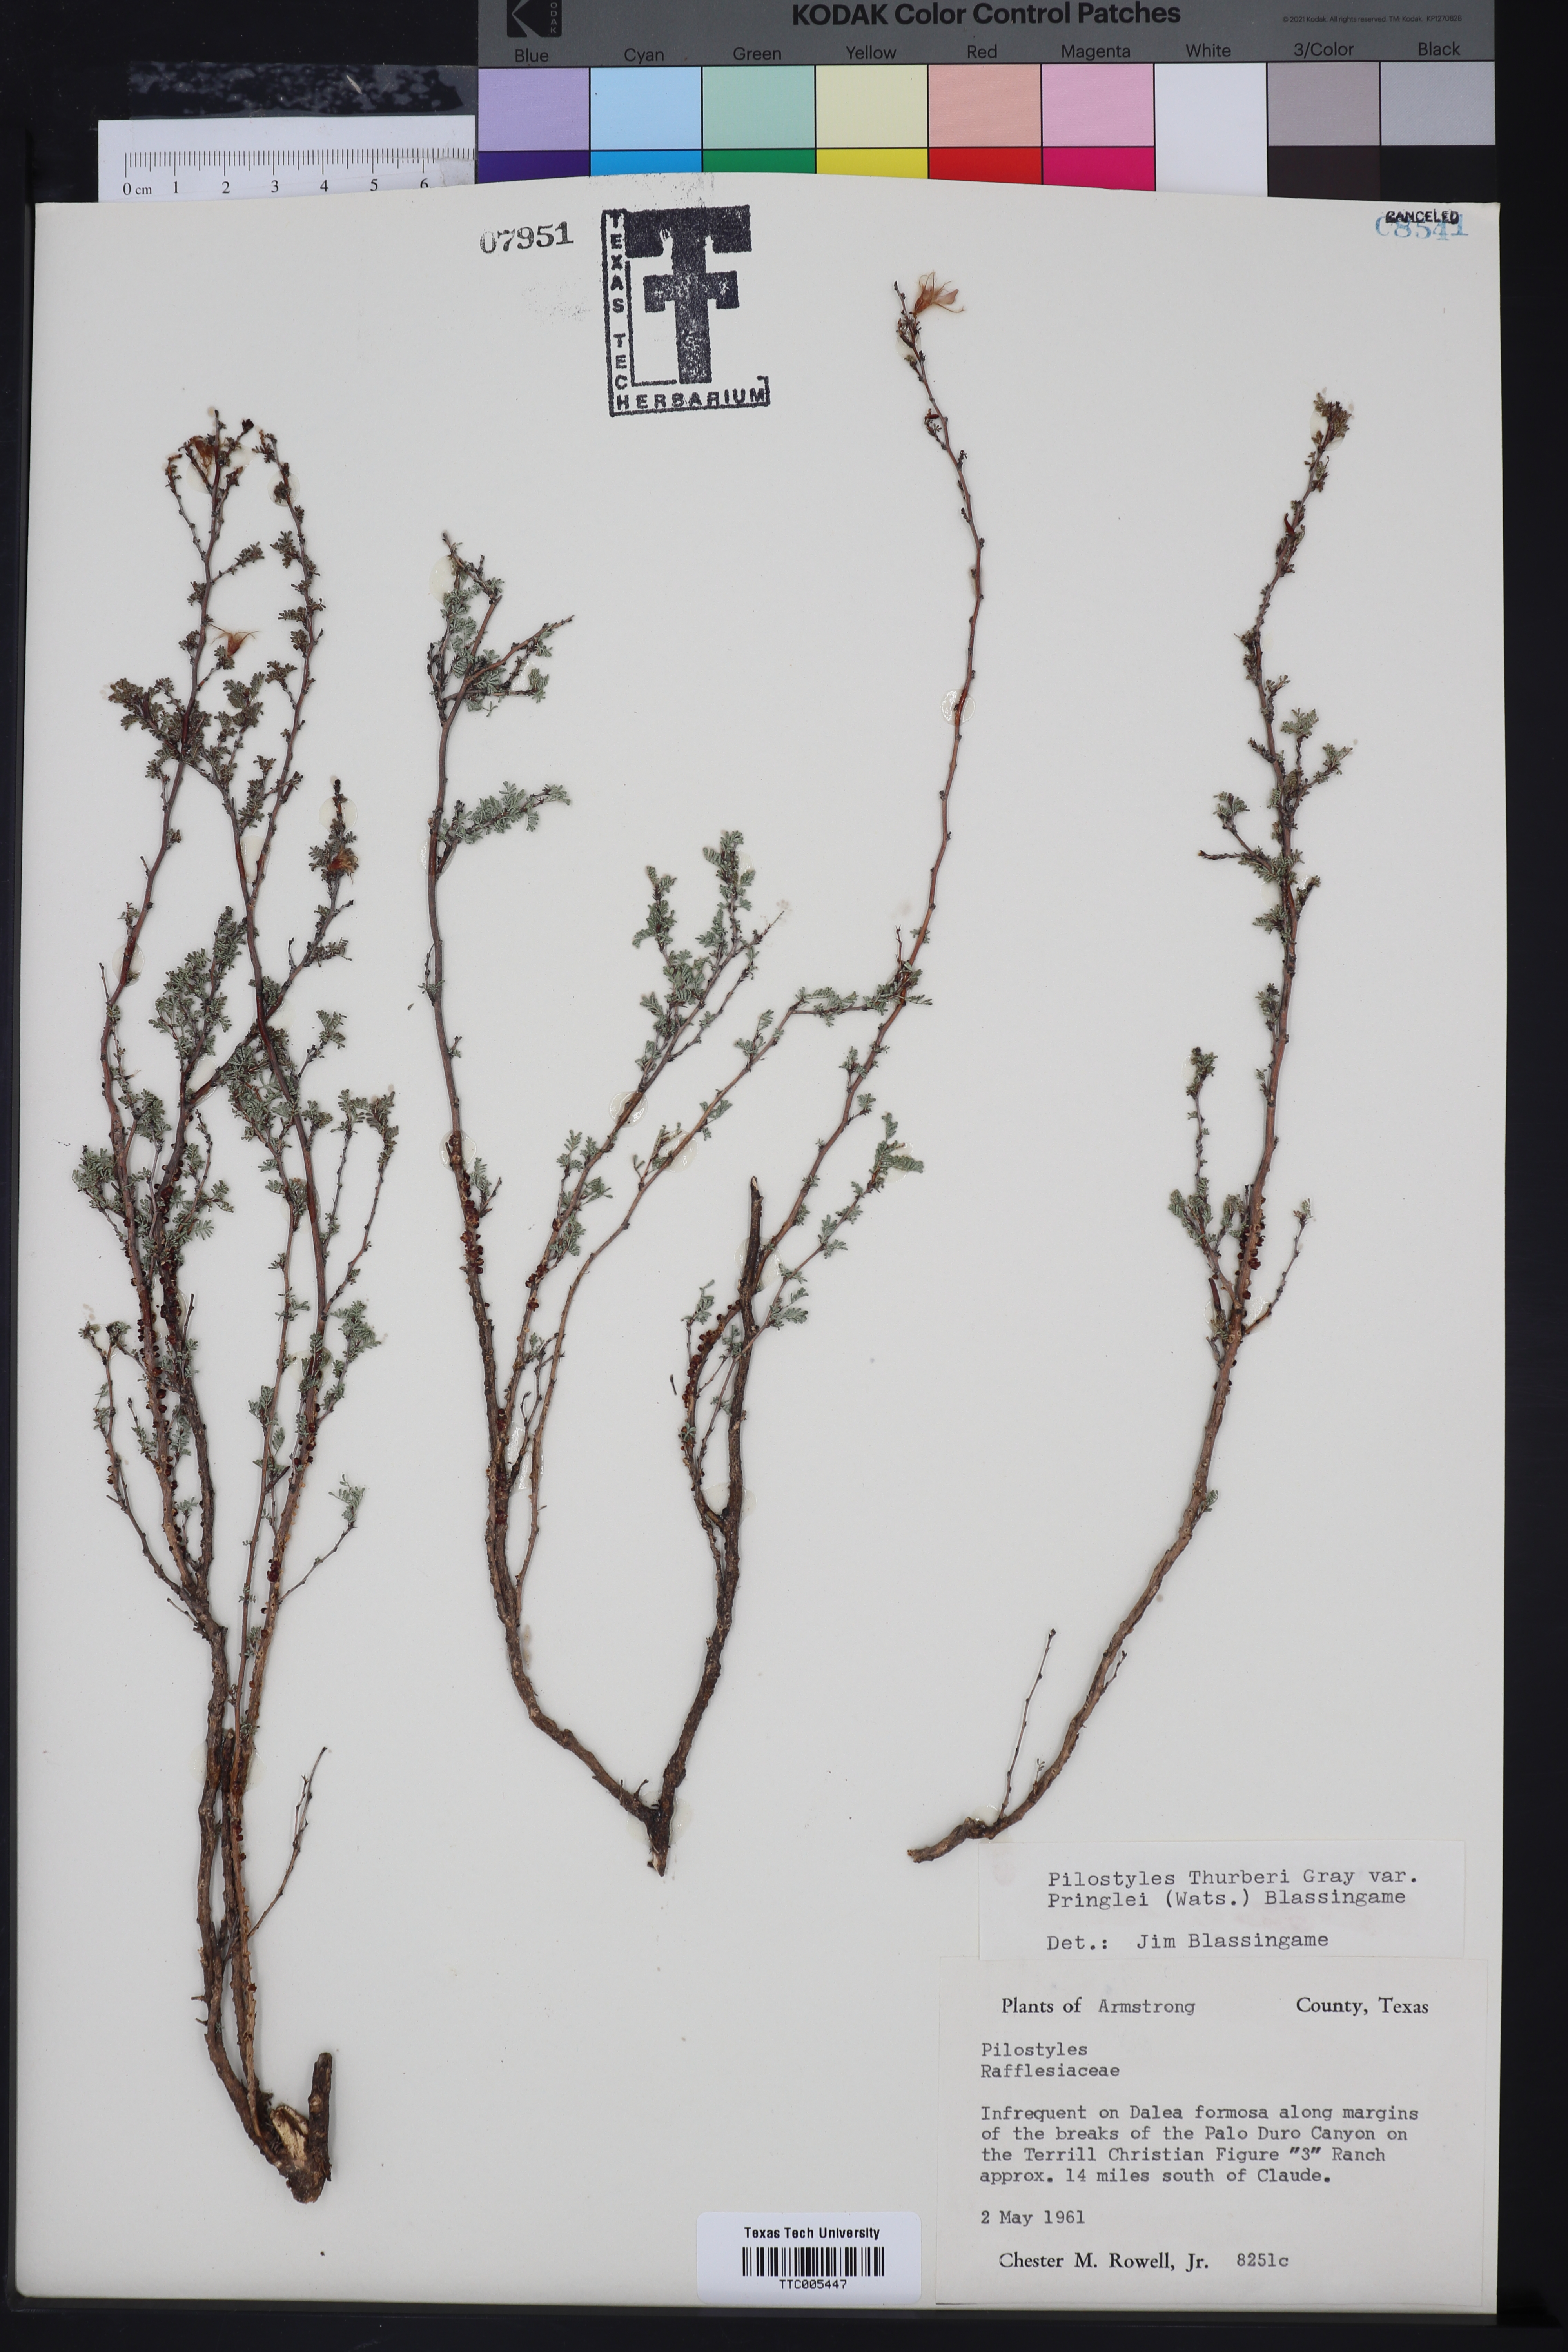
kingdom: Plantae
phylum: Tracheophyta
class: Magnoliopsida
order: Cucurbitales
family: Apodanthaceae
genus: Pilostyles
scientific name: Pilostyles thurberi
